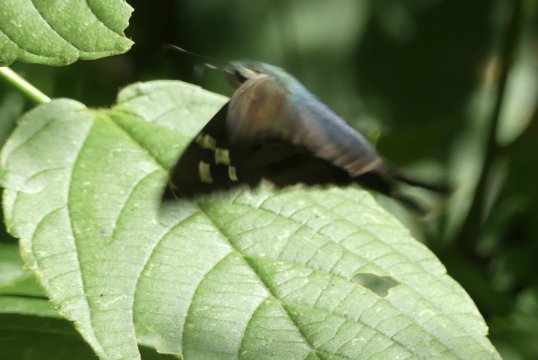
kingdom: Animalia
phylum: Arthropoda
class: Insecta
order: Lepidoptera
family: Hesperiidae
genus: Urbanus
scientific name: Urbanus proteus
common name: Long-tailed Skipper
